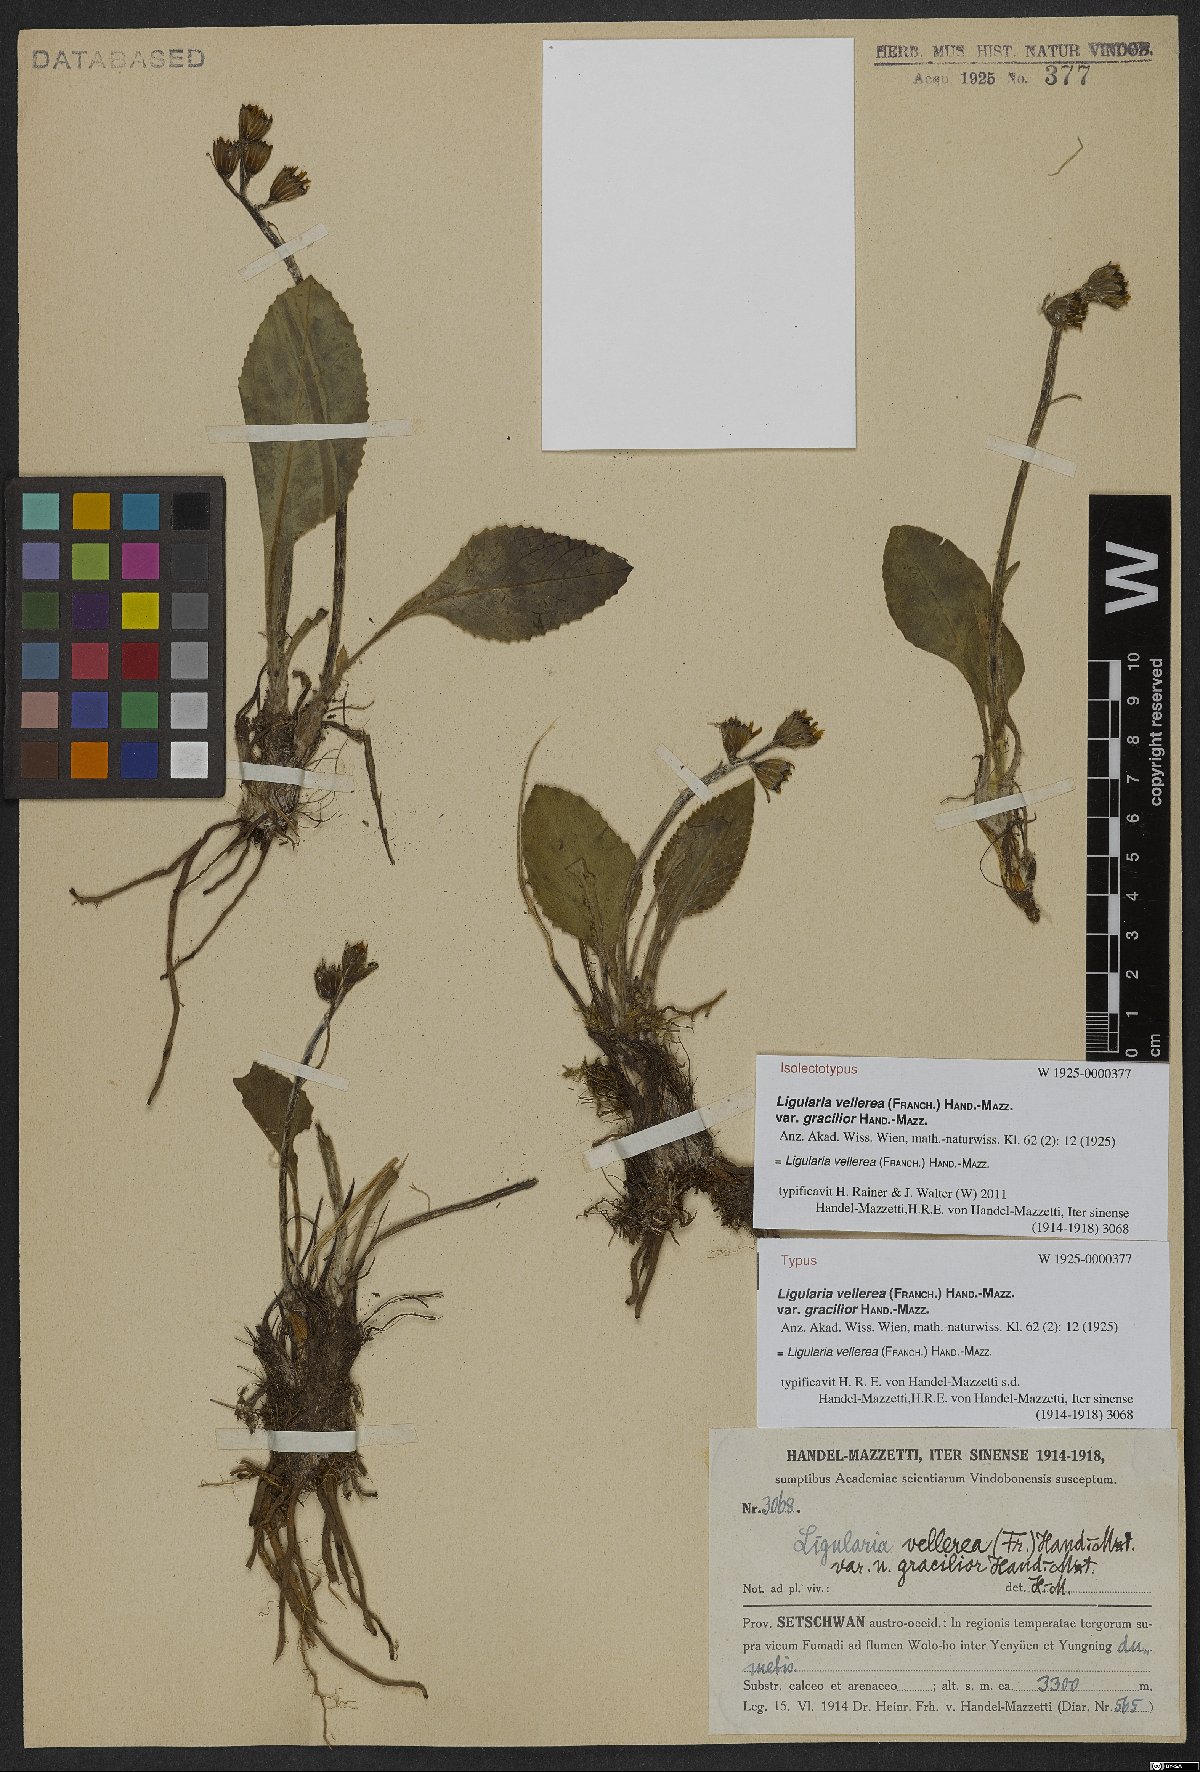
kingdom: Plantae
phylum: Tracheophyta
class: Magnoliopsida
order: Asterales
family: Asteraceae
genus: Ligularia
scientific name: Ligularia vellerea
